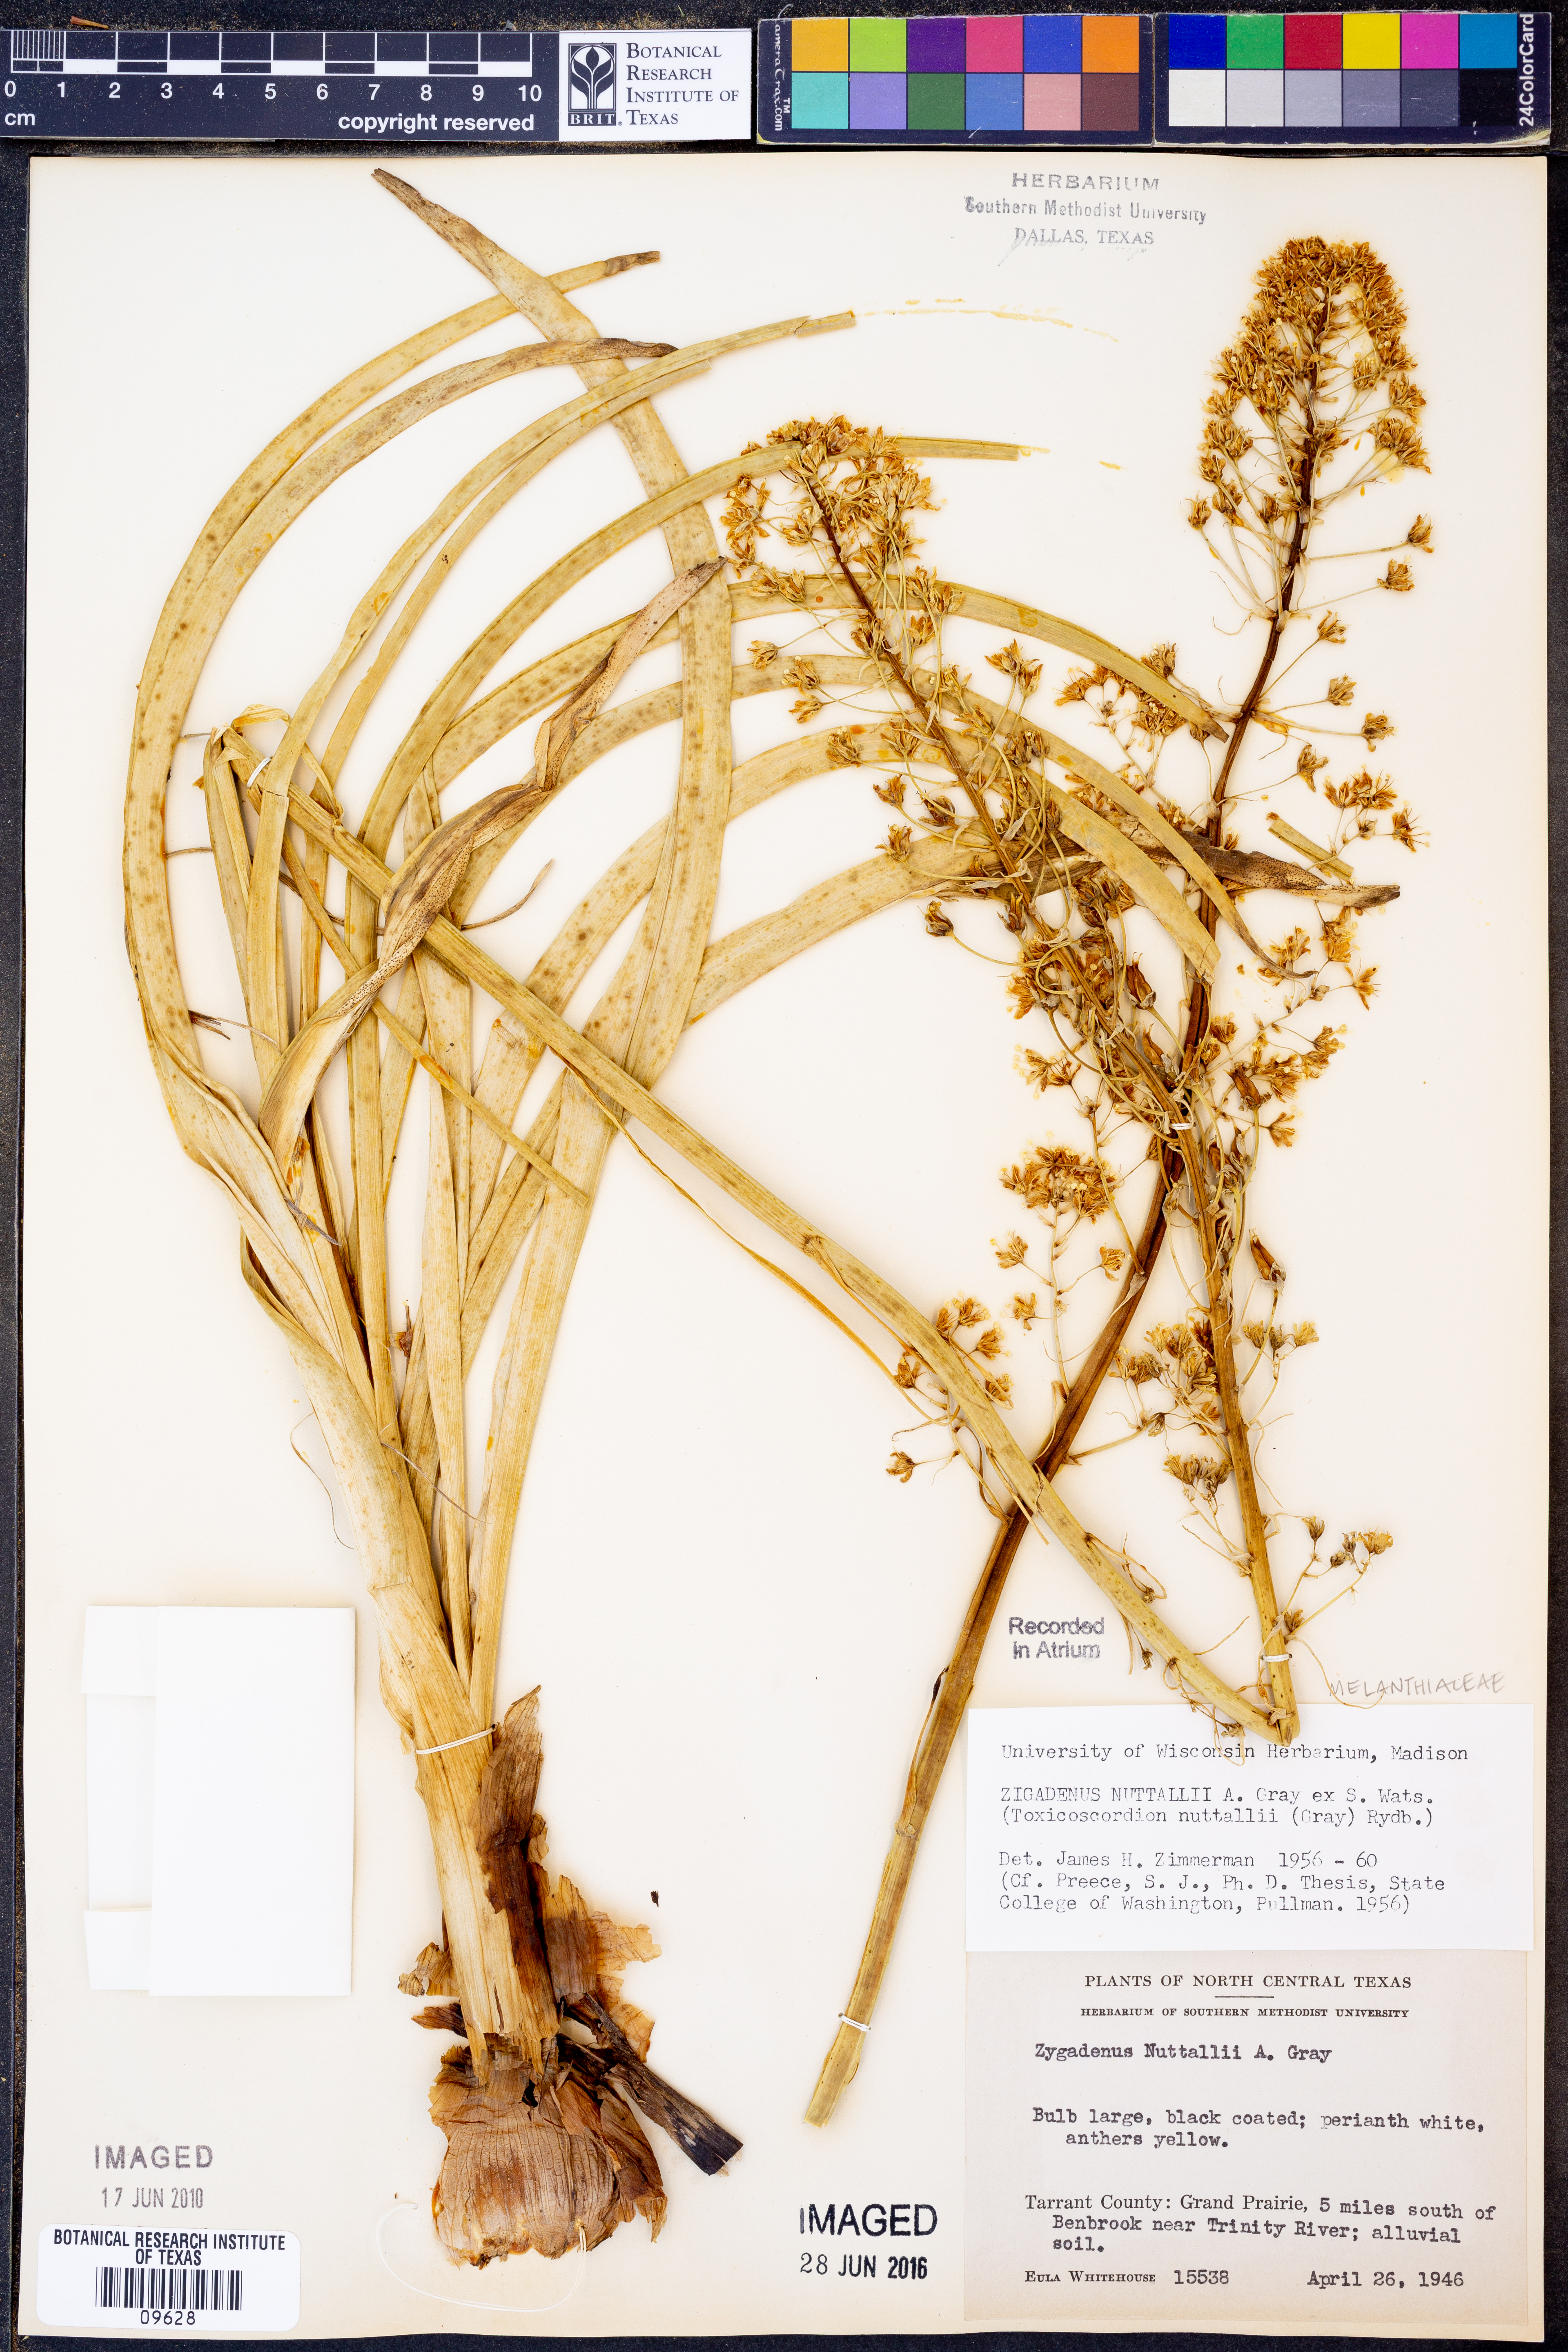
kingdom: Plantae
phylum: Tracheophyta
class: Liliopsida
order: Liliales
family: Melanthiaceae
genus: Toxicoscordion
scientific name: Toxicoscordion nuttallii
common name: Poison sego
